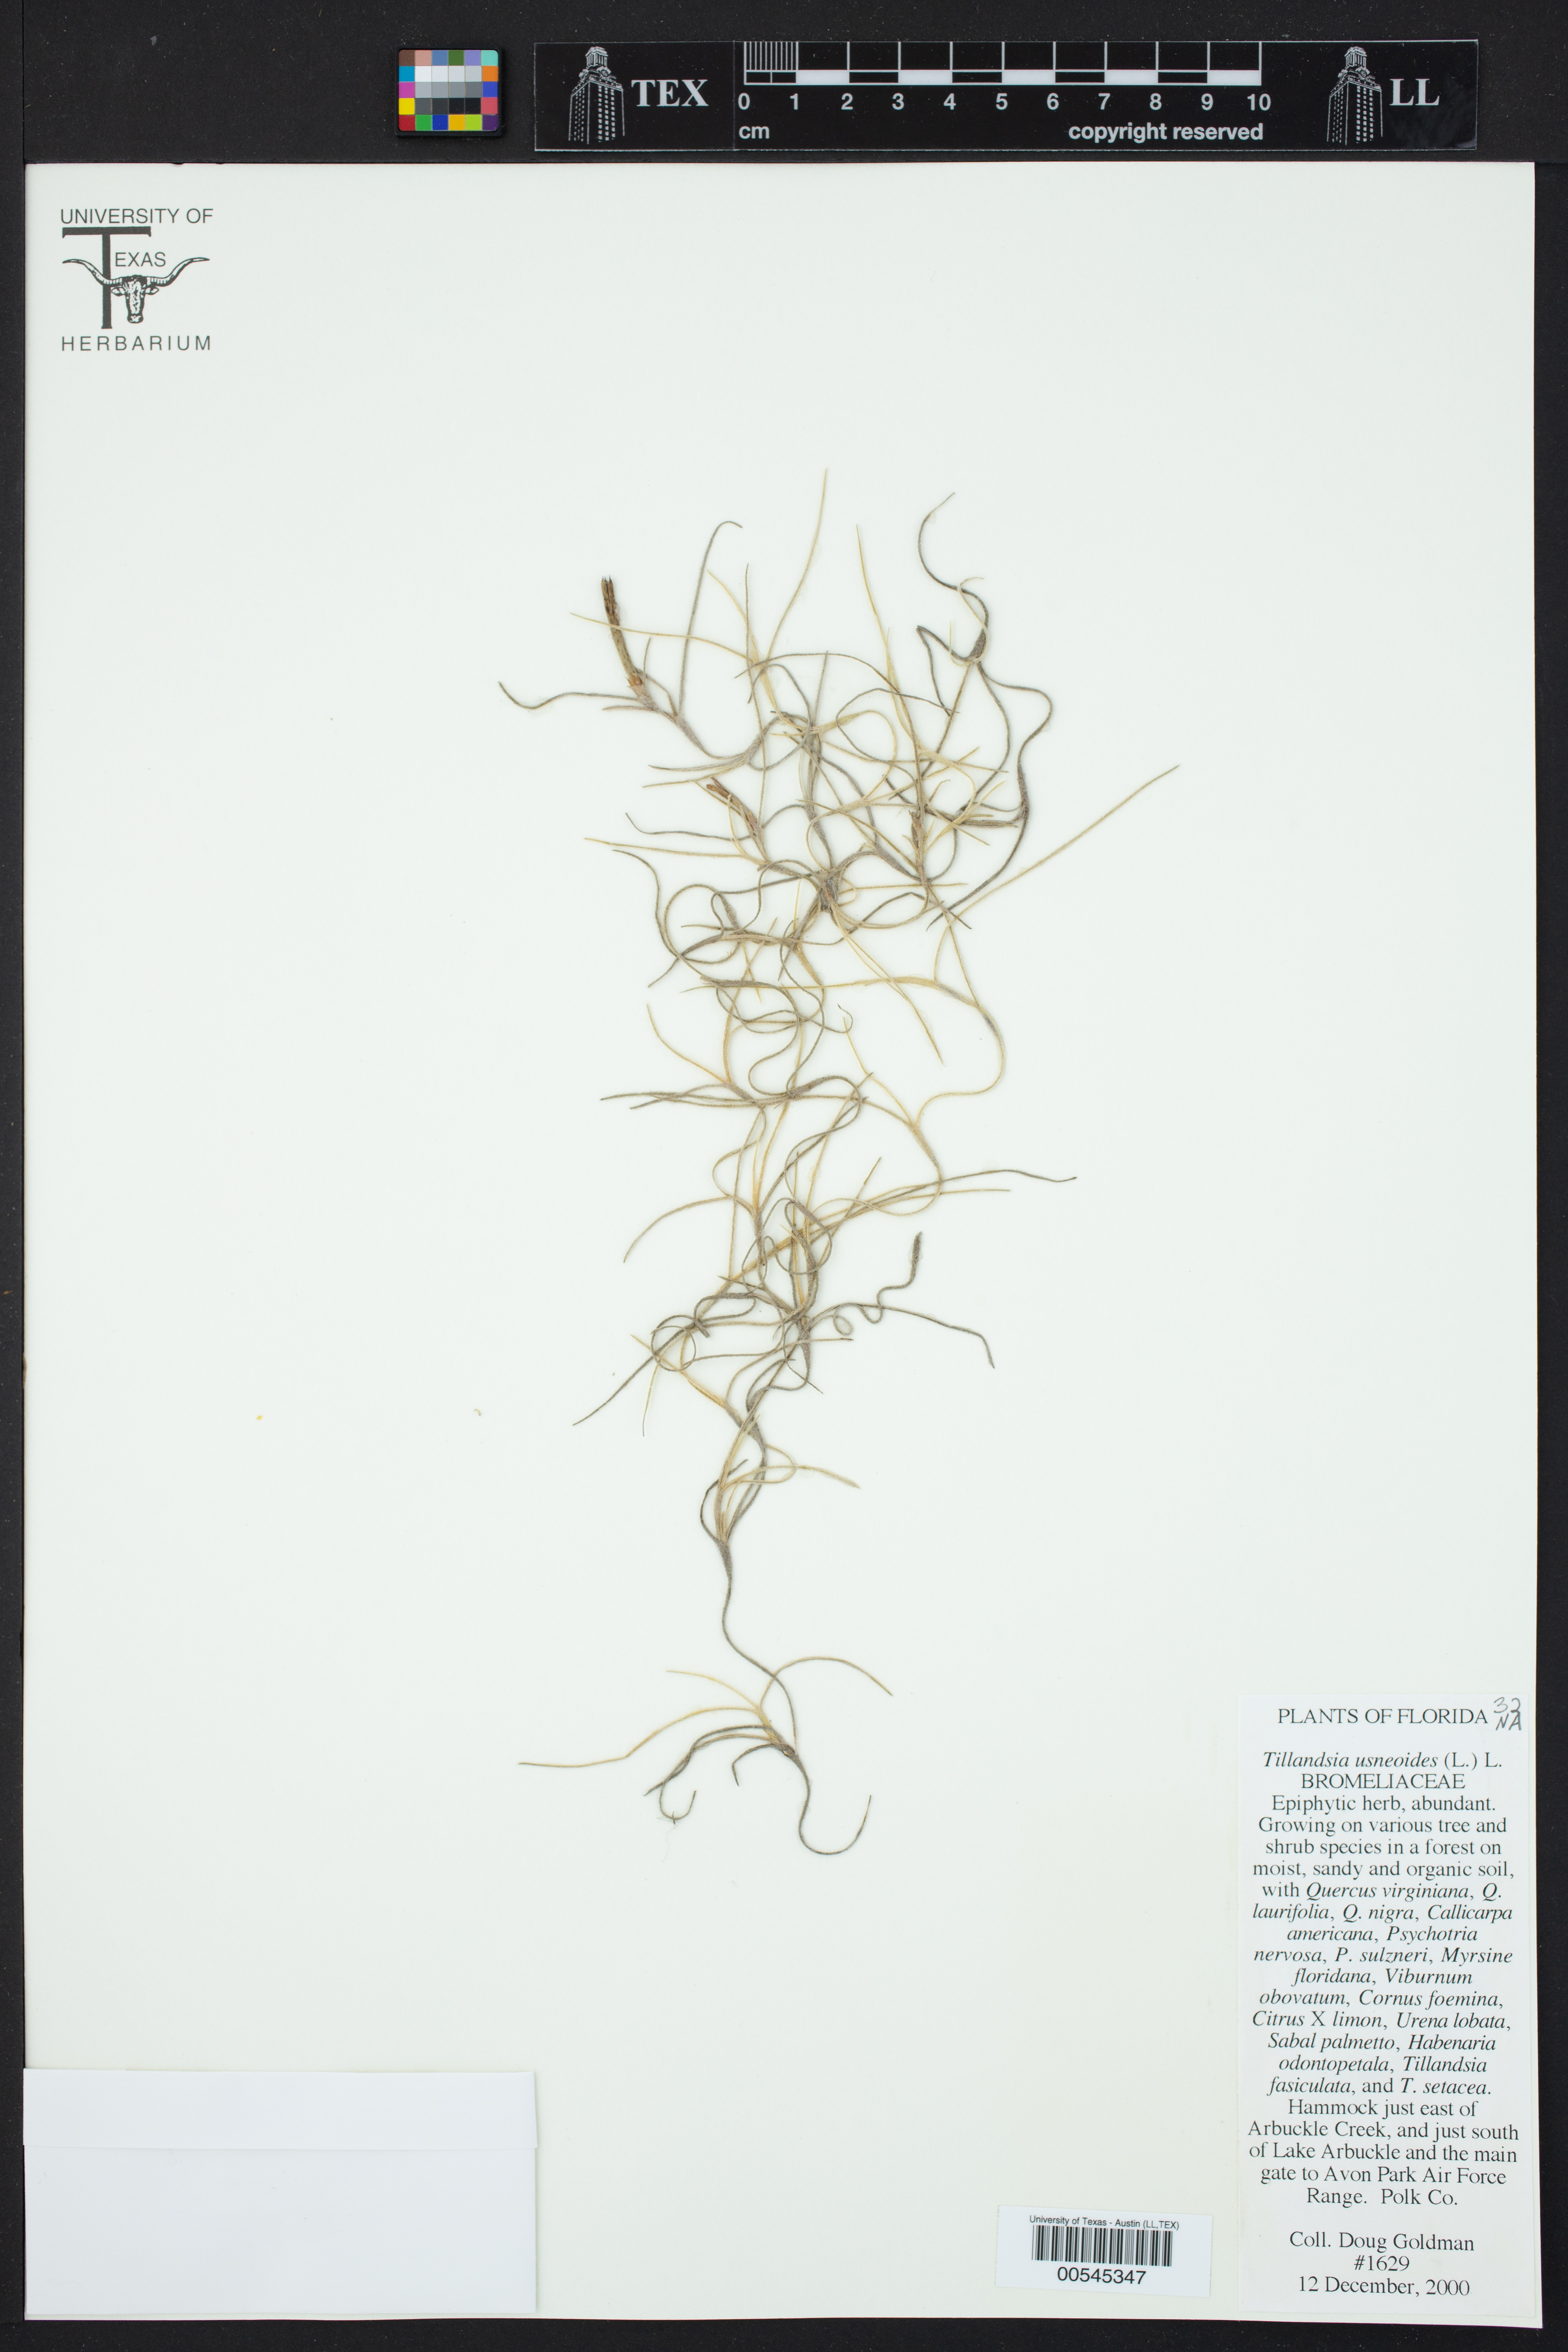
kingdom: Plantae
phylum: Tracheophyta
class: Liliopsida
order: Poales
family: Bromeliaceae
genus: Tillandsia
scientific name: Tillandsia usneoides
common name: Spanish moss
